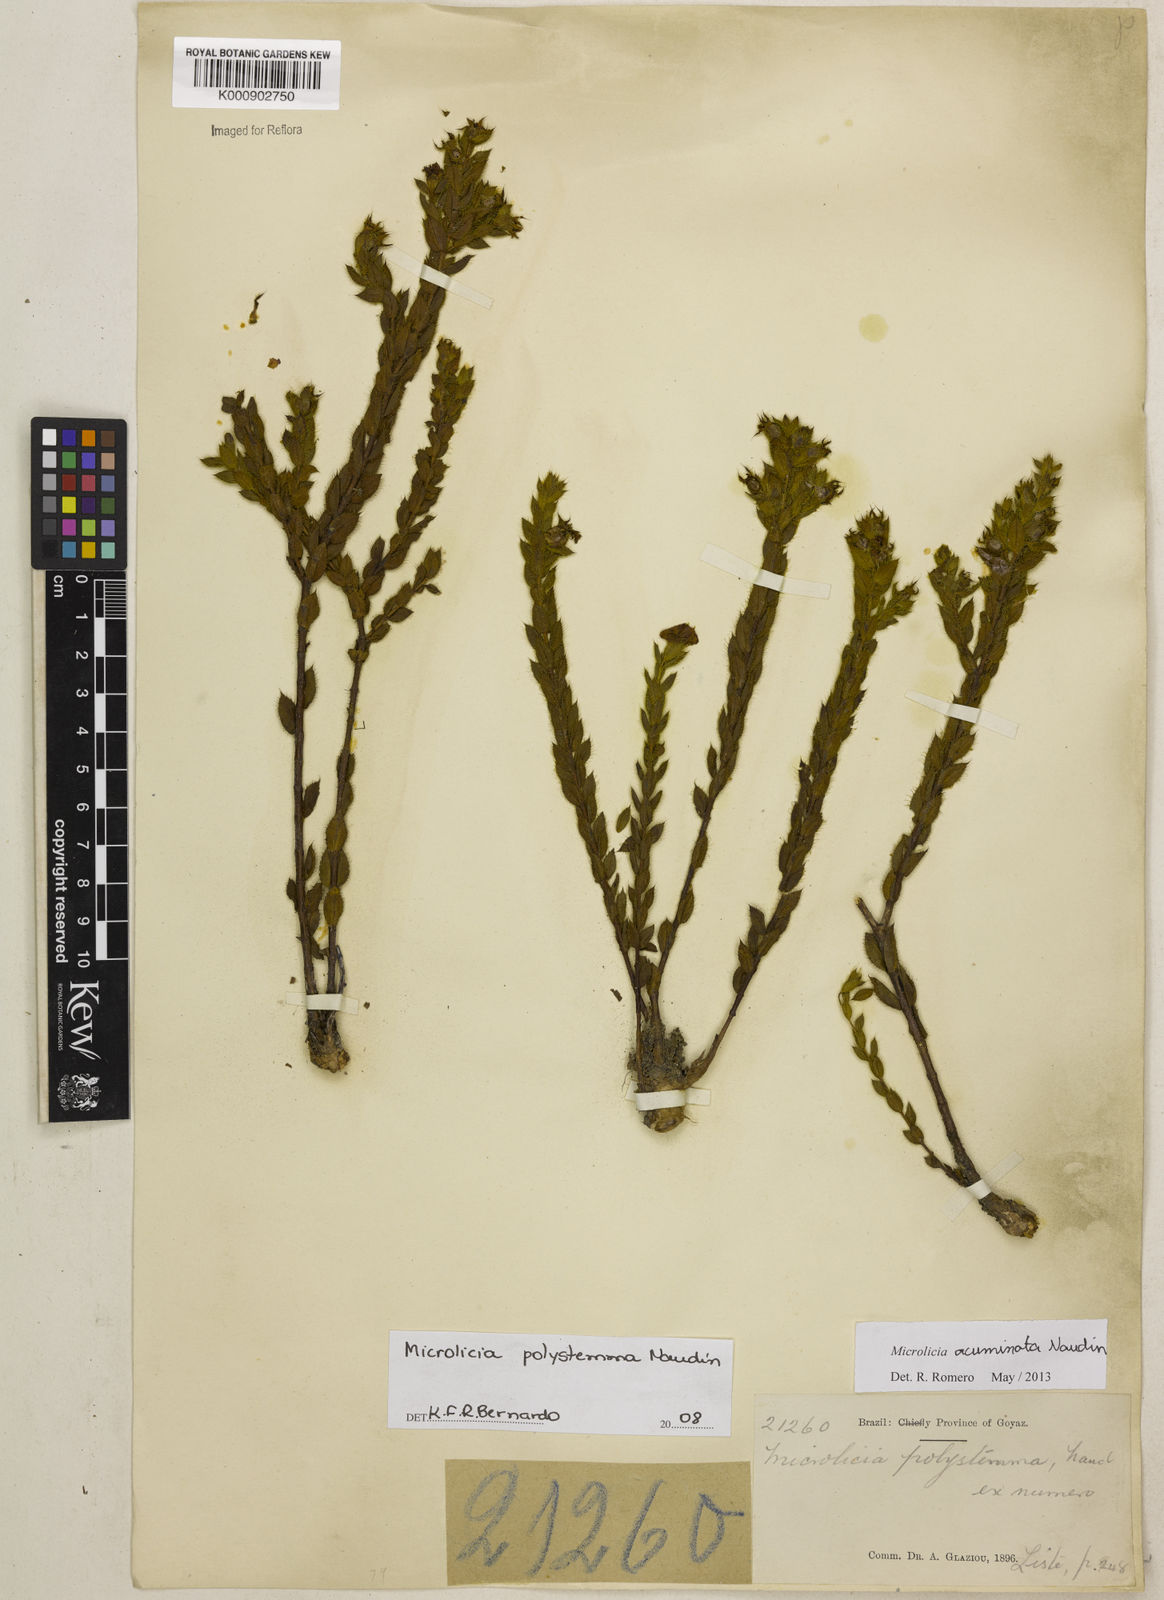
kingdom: Plantae
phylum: Tracheophyta
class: Magnoliopsida
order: Myrtales
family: Melastomataceae
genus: Microlicia
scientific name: Microlicia
